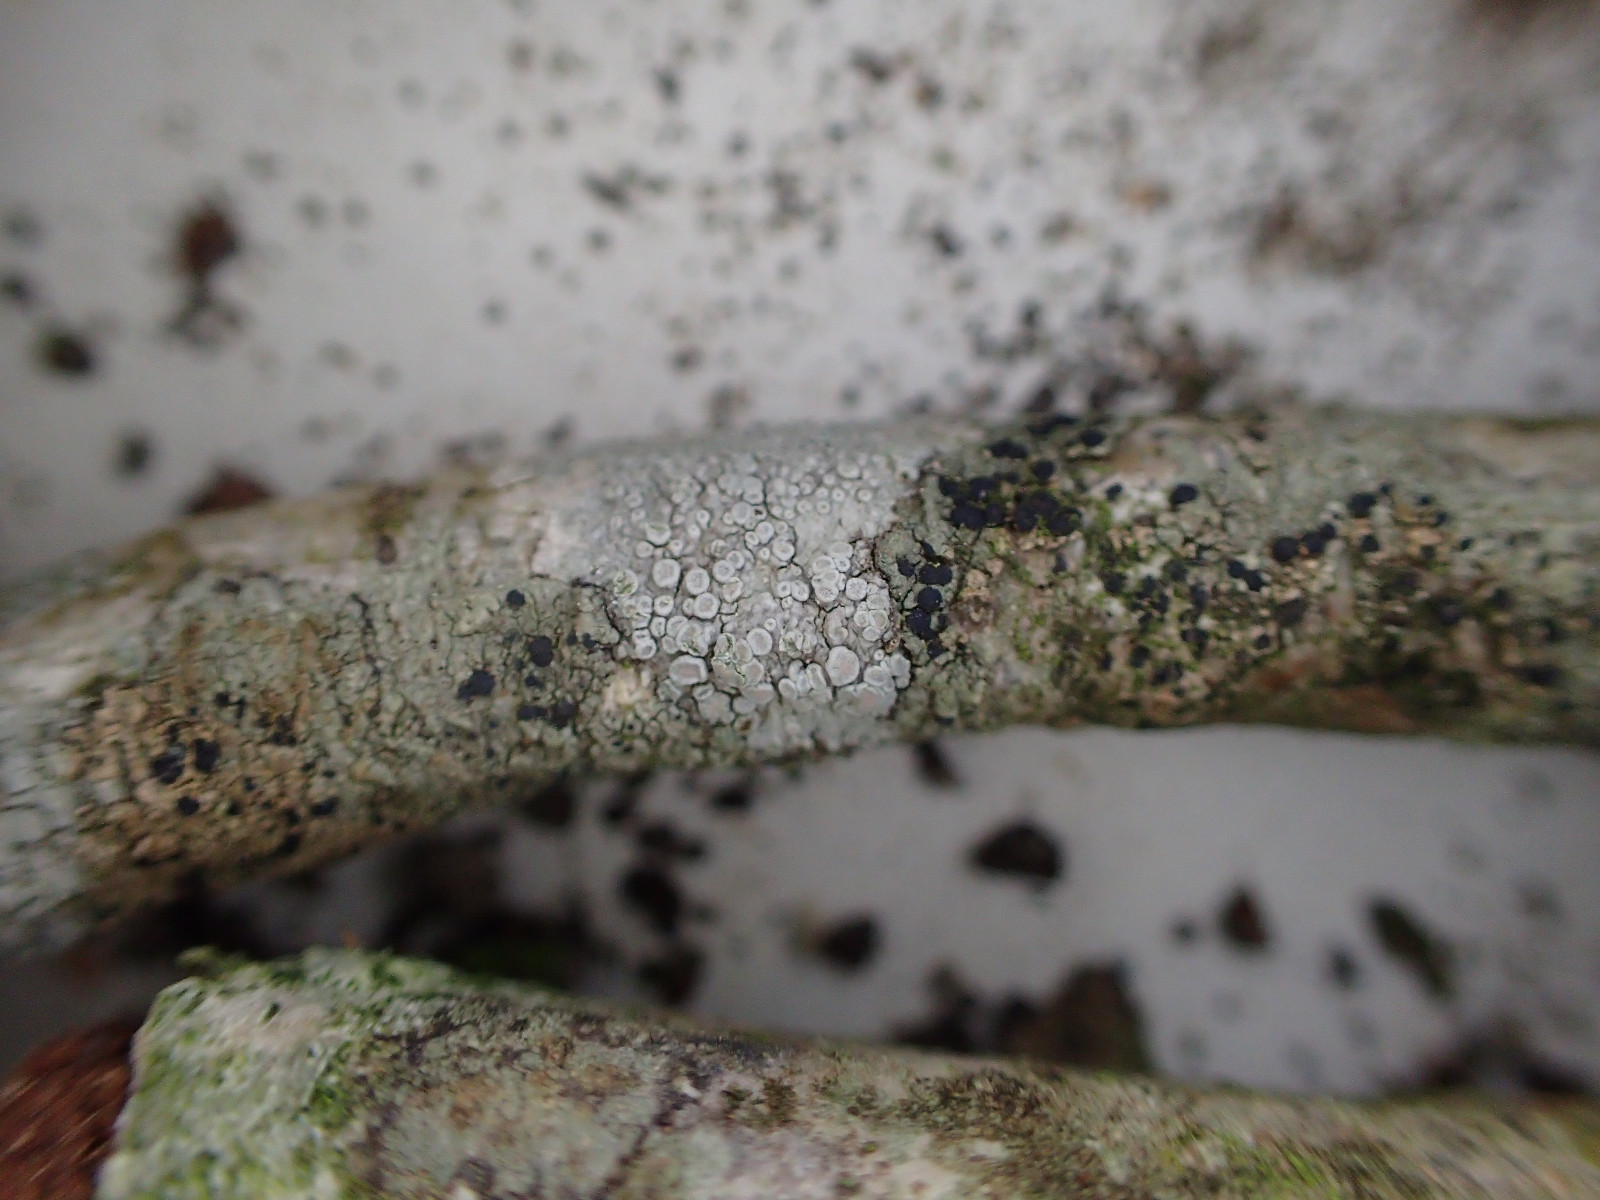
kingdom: Fungi
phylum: Ascomycota
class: Lecanoromycetes
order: Lecanorales
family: Lecanoraceae
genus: Glaucomaria
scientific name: Glaucomaria carpinea
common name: hviddugget kantskivelav
